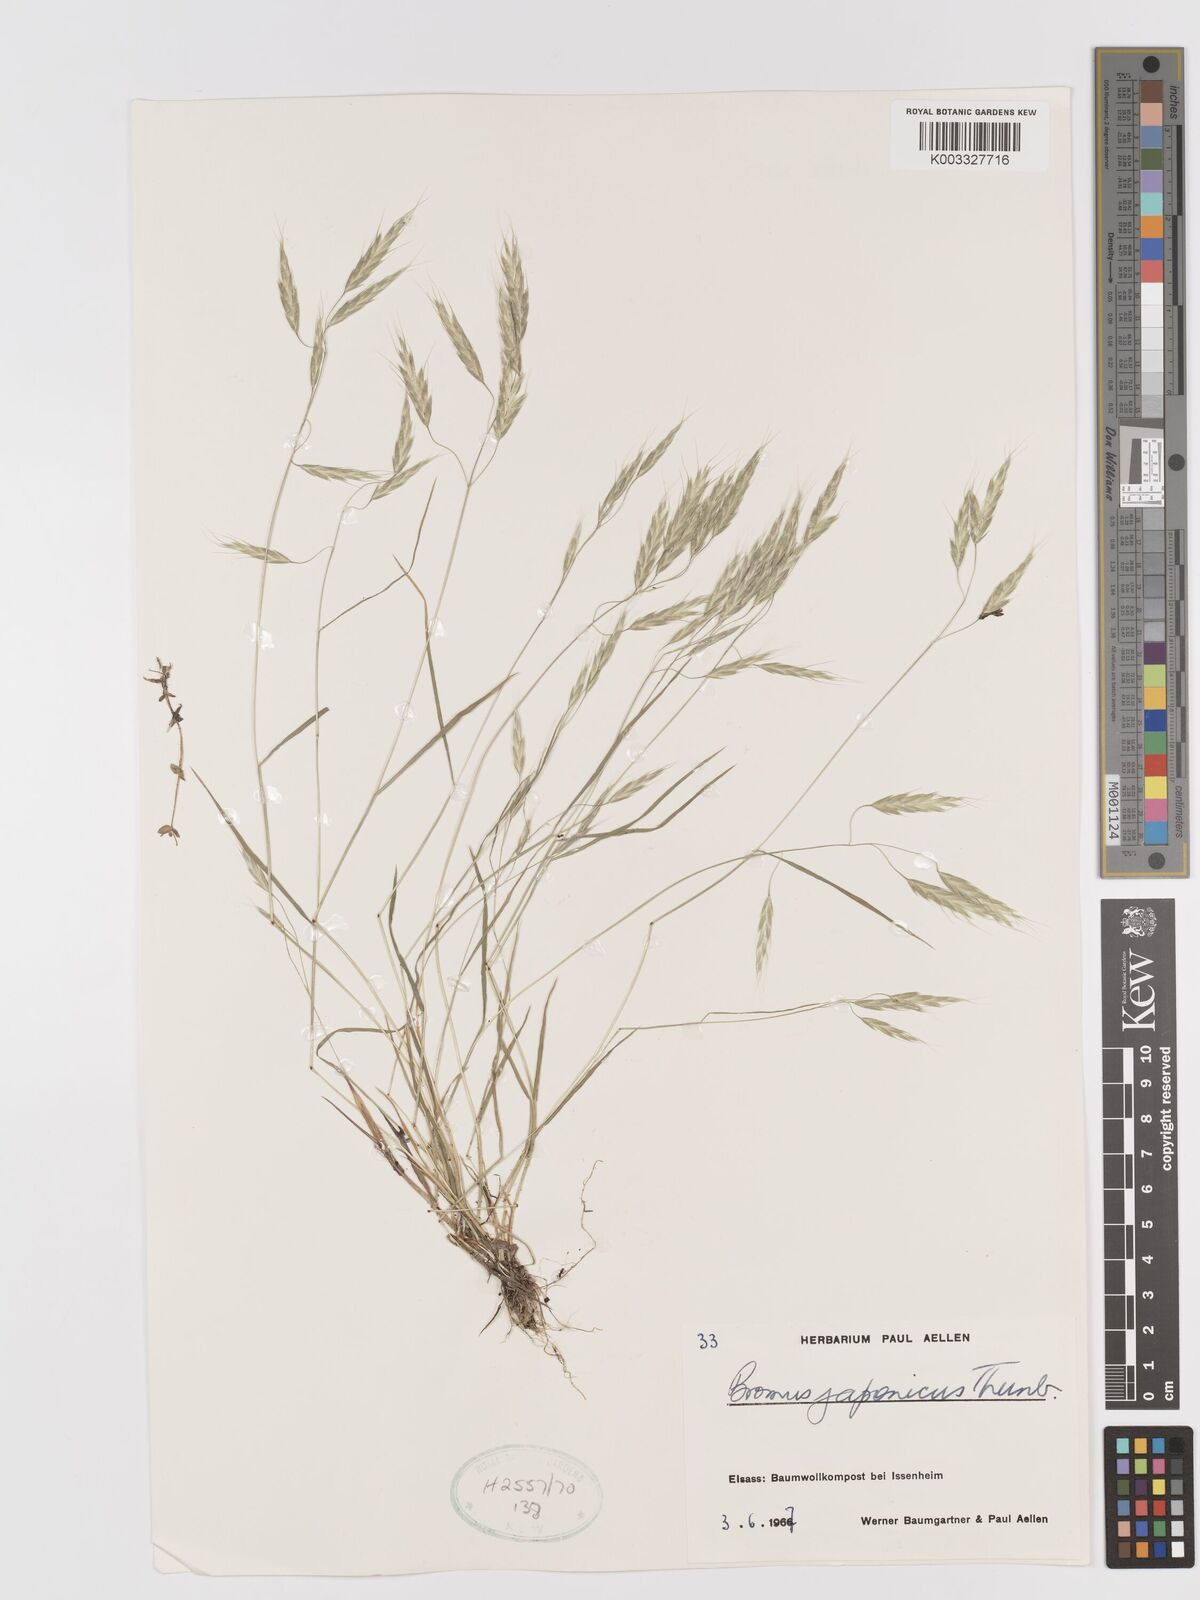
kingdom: Plantae
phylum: Tracheophyta
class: Liliopsida
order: Poales
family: Poaceae
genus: Bromus
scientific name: Bromus japonicus
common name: Japanese brome
